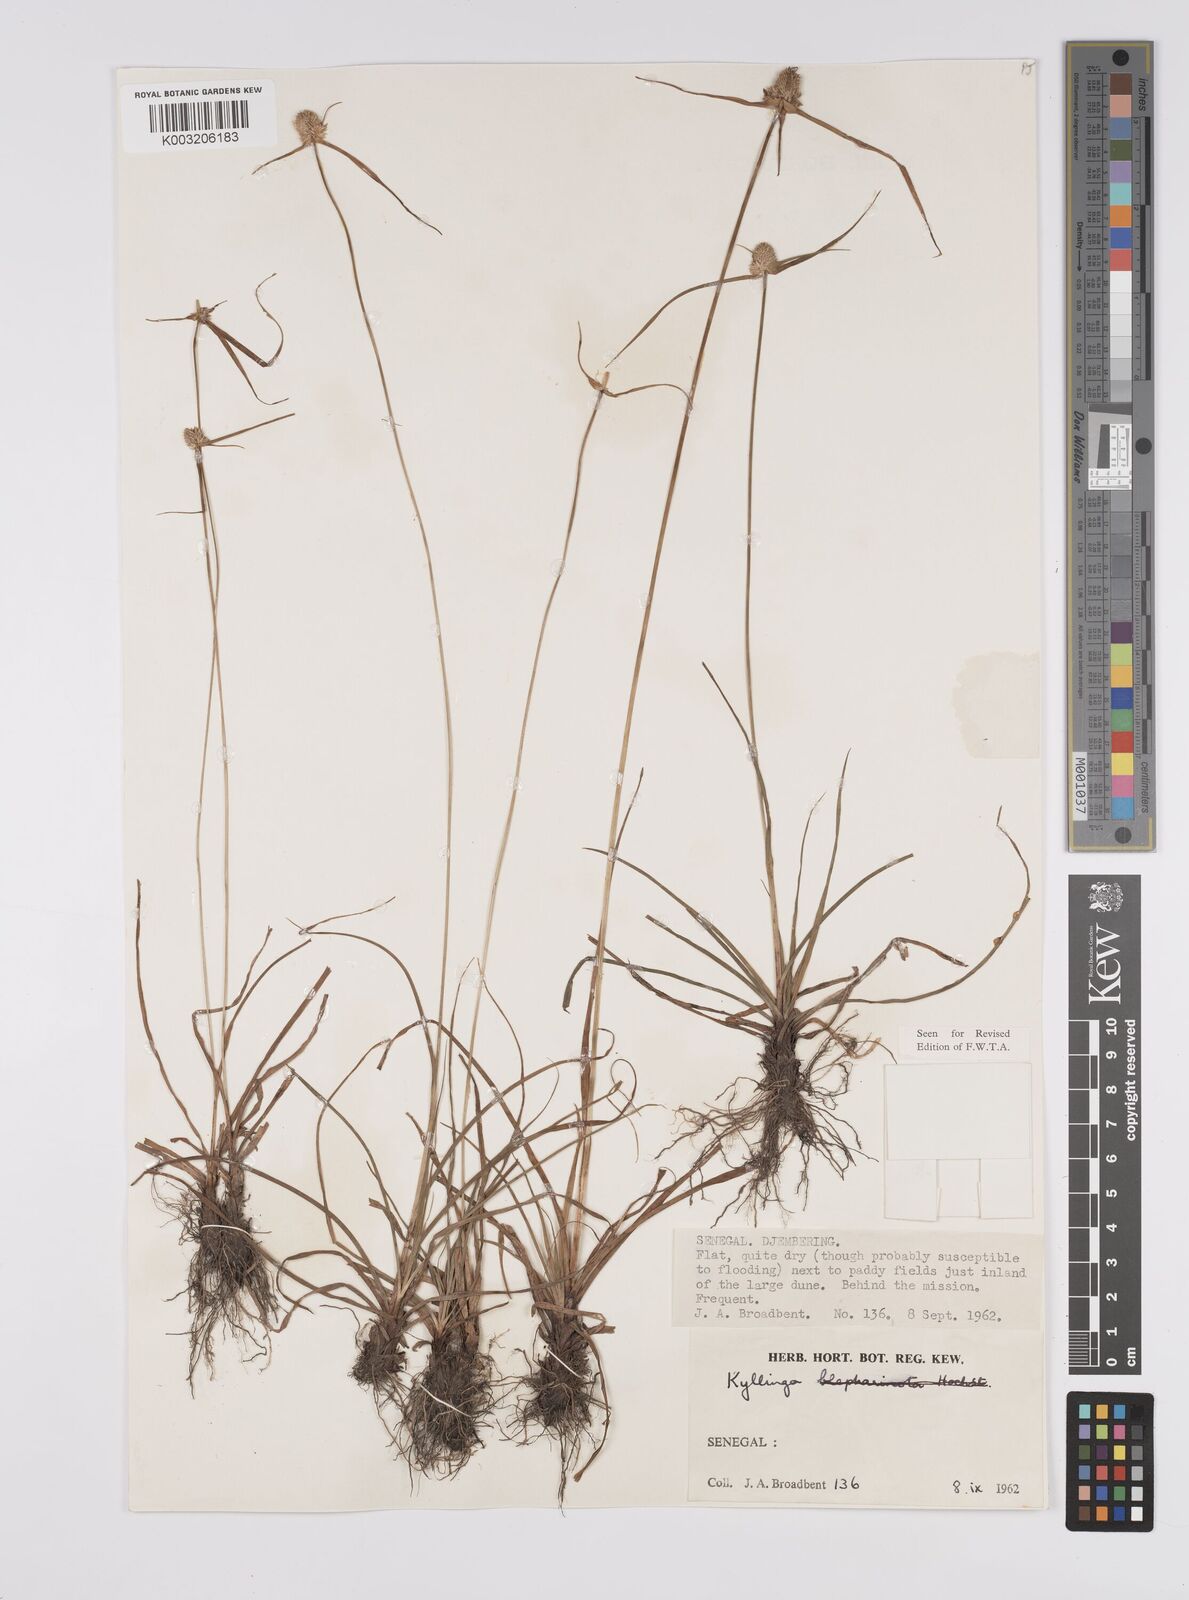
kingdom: Plantae
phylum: Tracheophyta
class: Liliopsida
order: Poales
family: Cyperaceae
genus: Cyperus
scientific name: Cyperus
